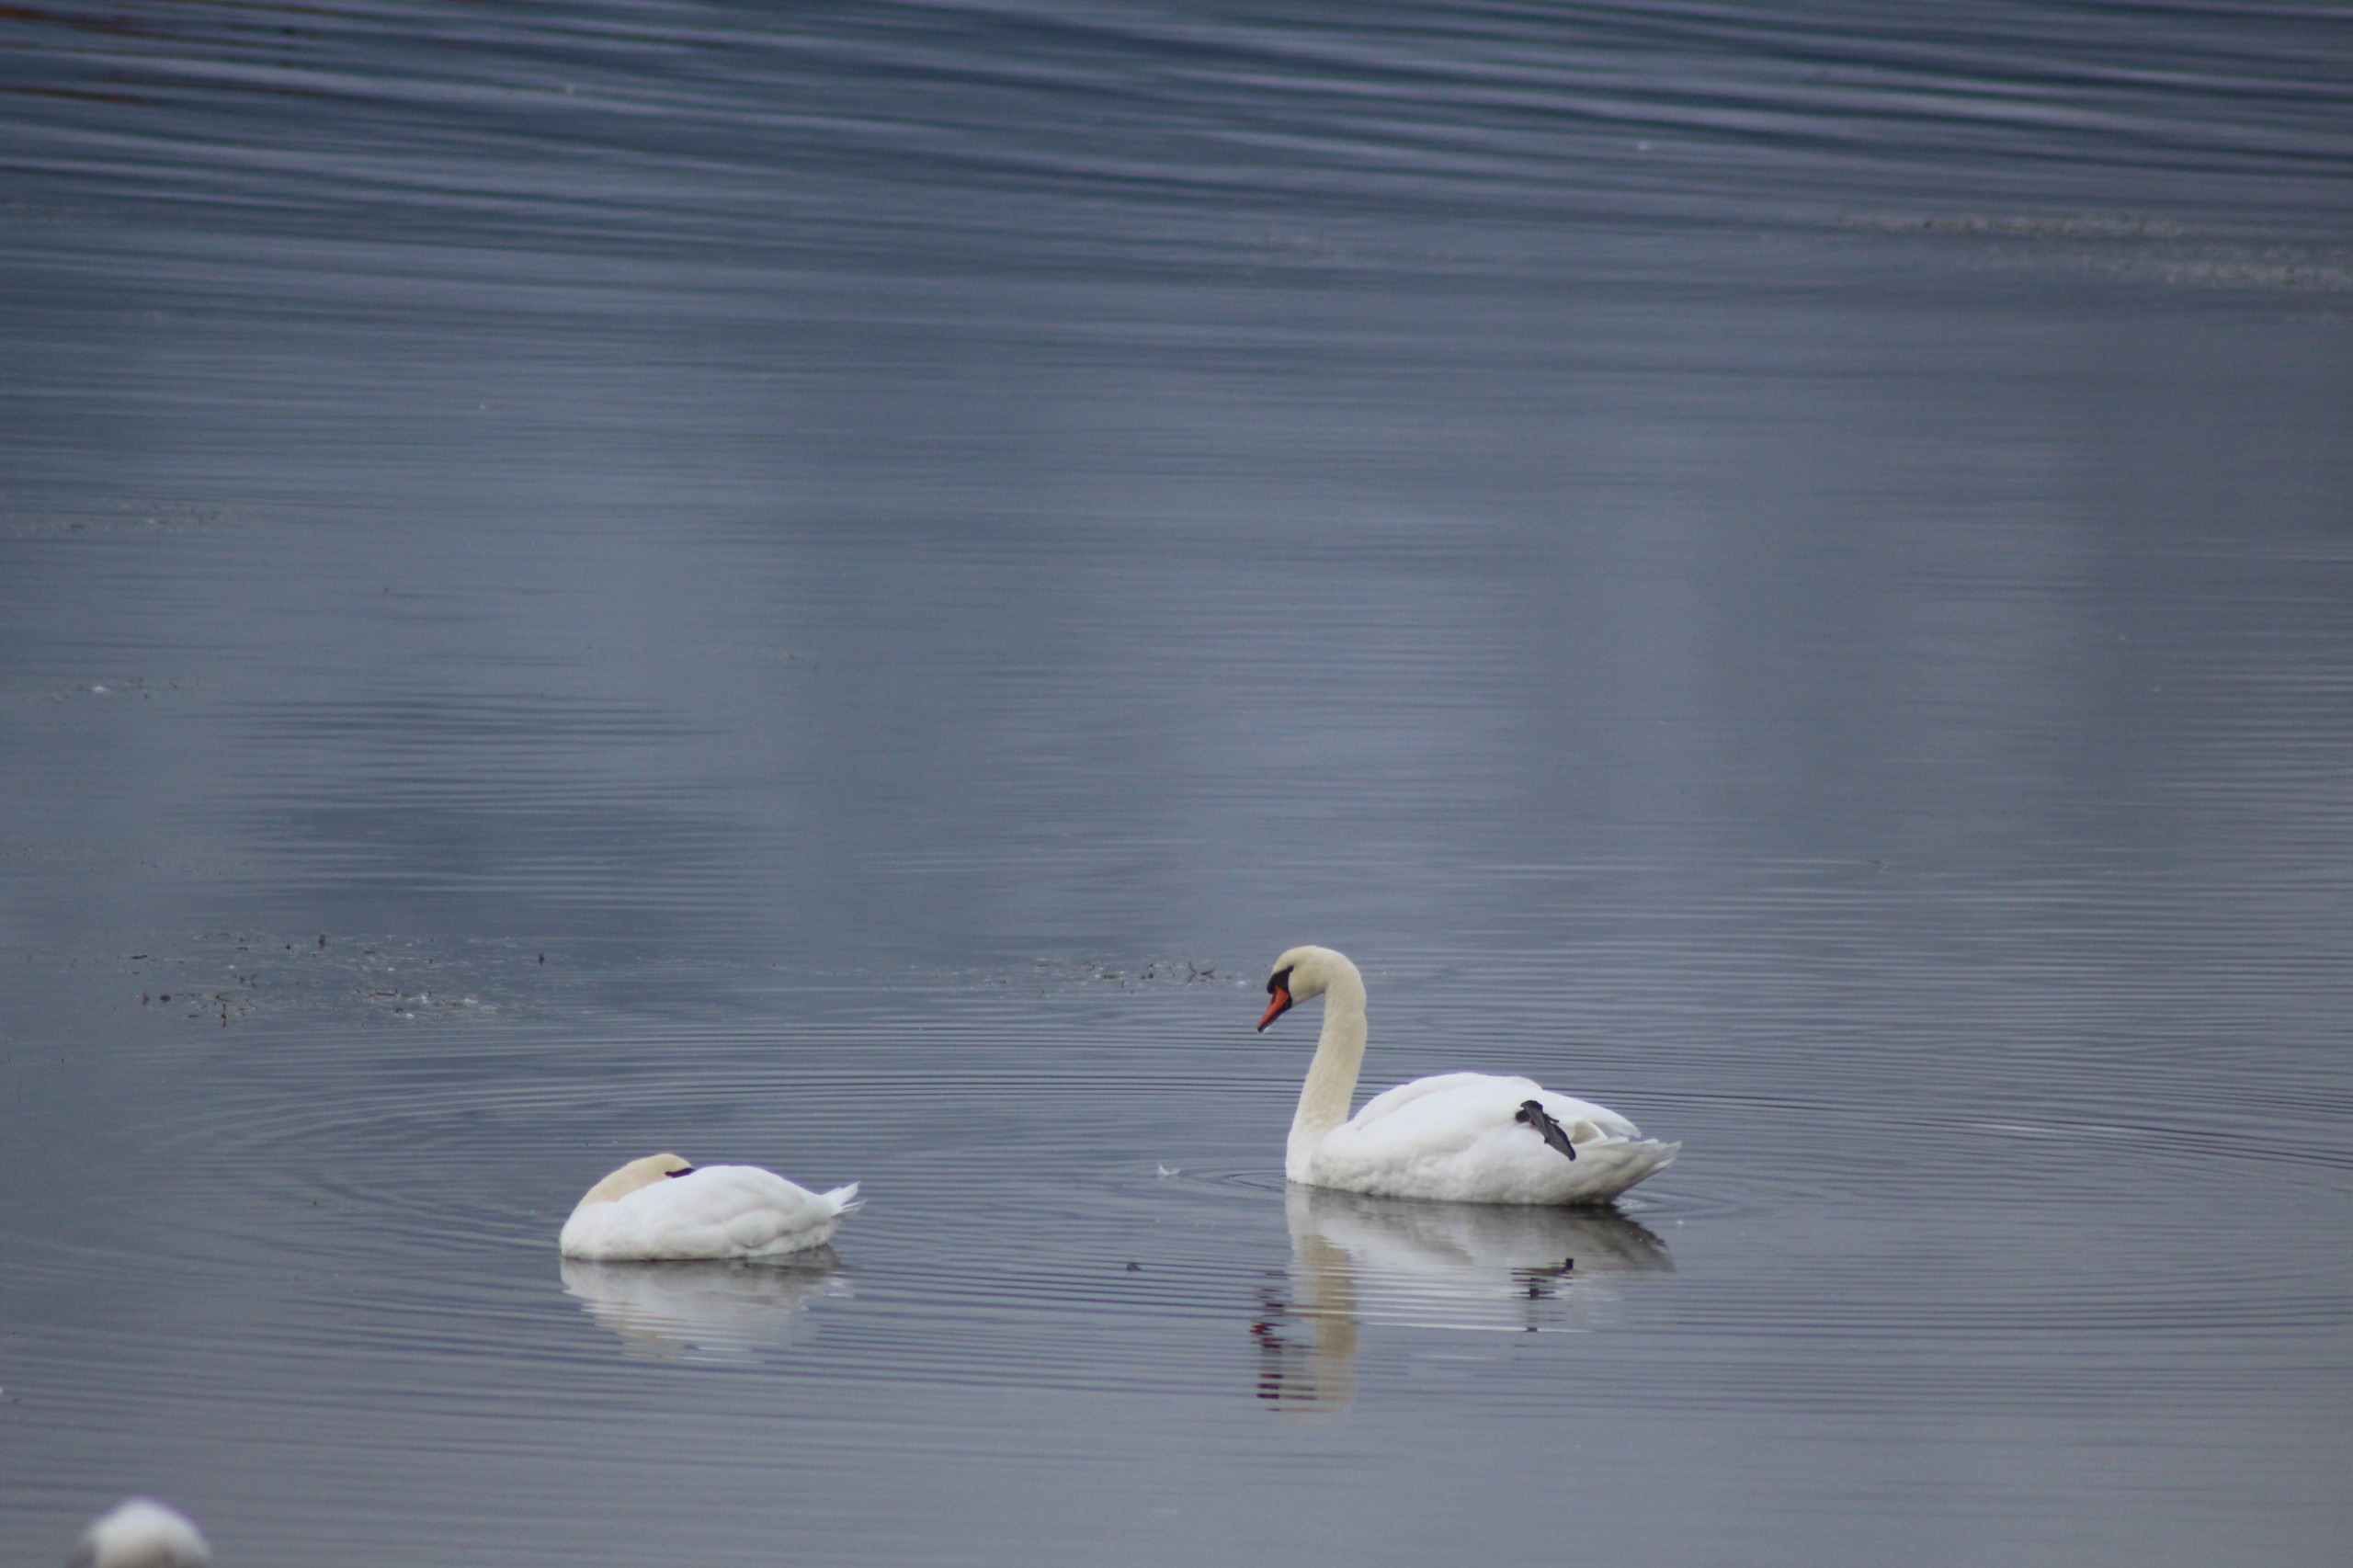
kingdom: Animalia
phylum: Chordata
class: Aves
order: Anseriformes
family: Anatidae
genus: Cygnus
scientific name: Cygnus olor
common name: Knopsvane
